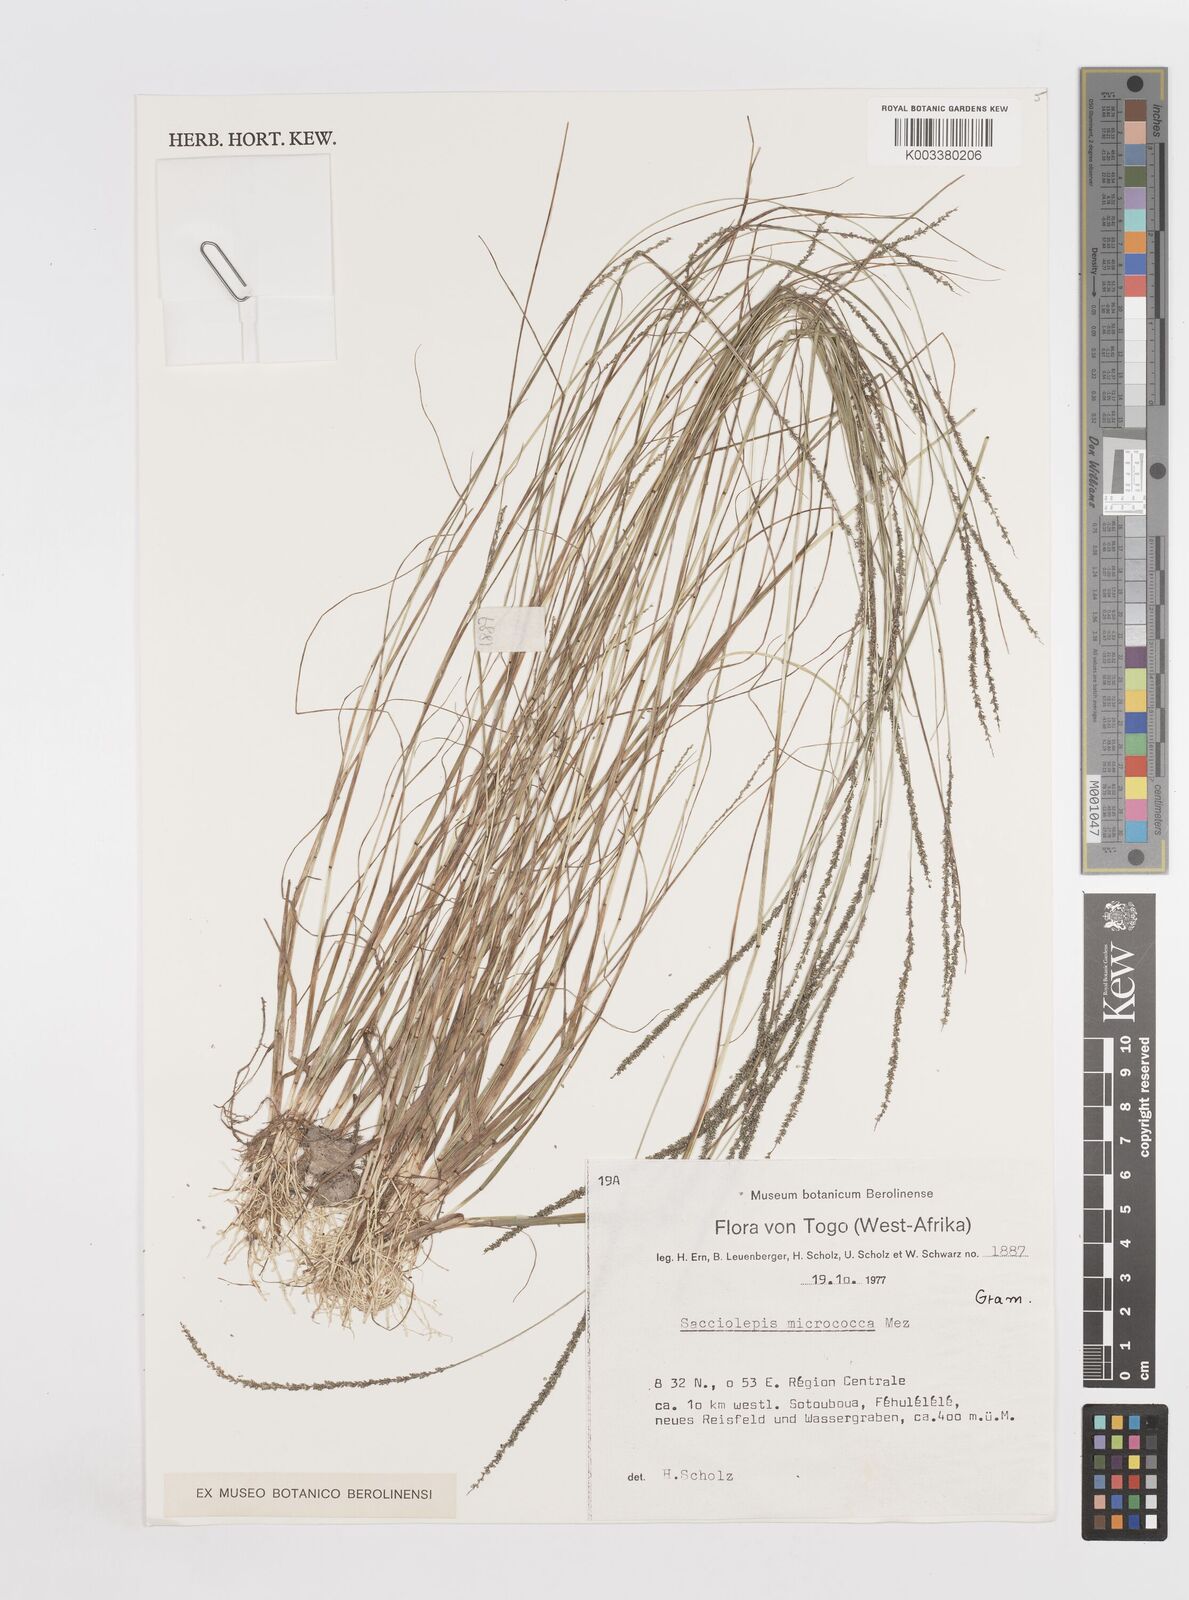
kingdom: Plantae
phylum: Tracheophyta
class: Liliopsida
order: Poales
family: Poaceae
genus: Sacciolepis
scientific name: Sacciolepis micrococca
